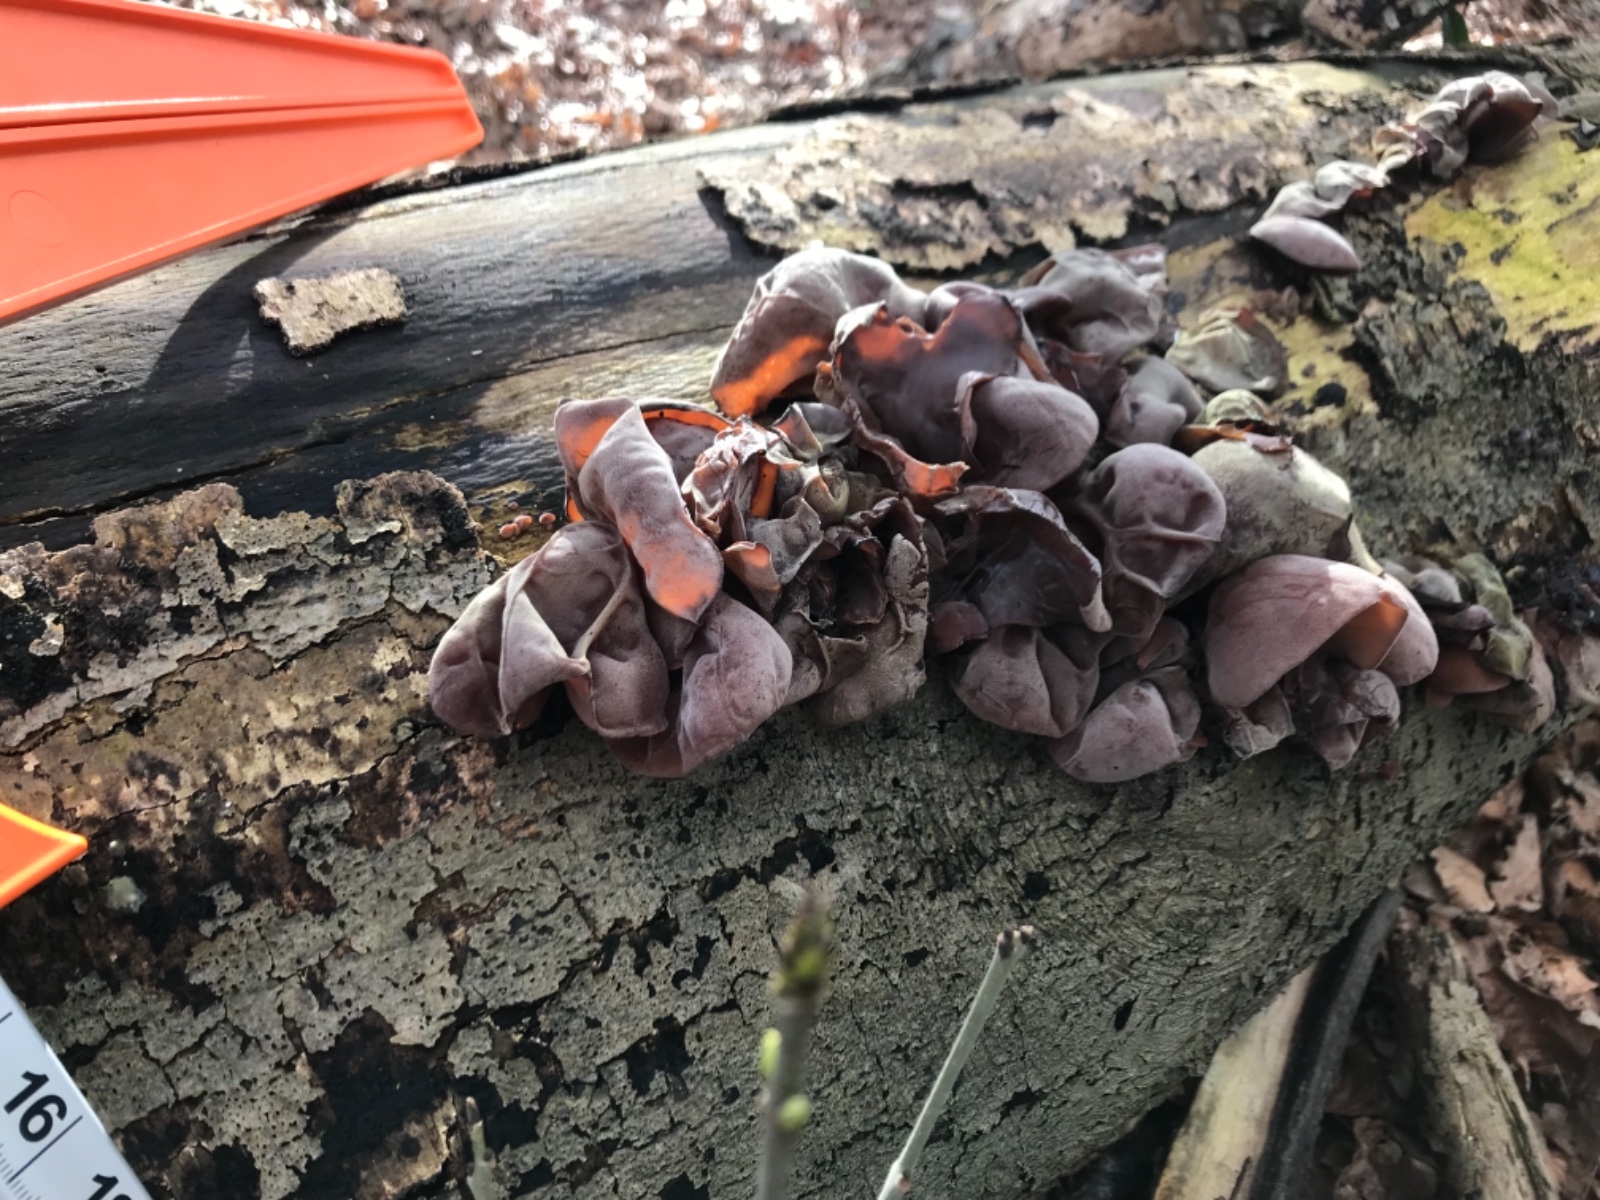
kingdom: Fungi
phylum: Basidiomycota
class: Agaricomycetes
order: Auriculariales
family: Auriculariaceae
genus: Auricularia
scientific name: Auricularia auricula-judae
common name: almindelig judasøre
